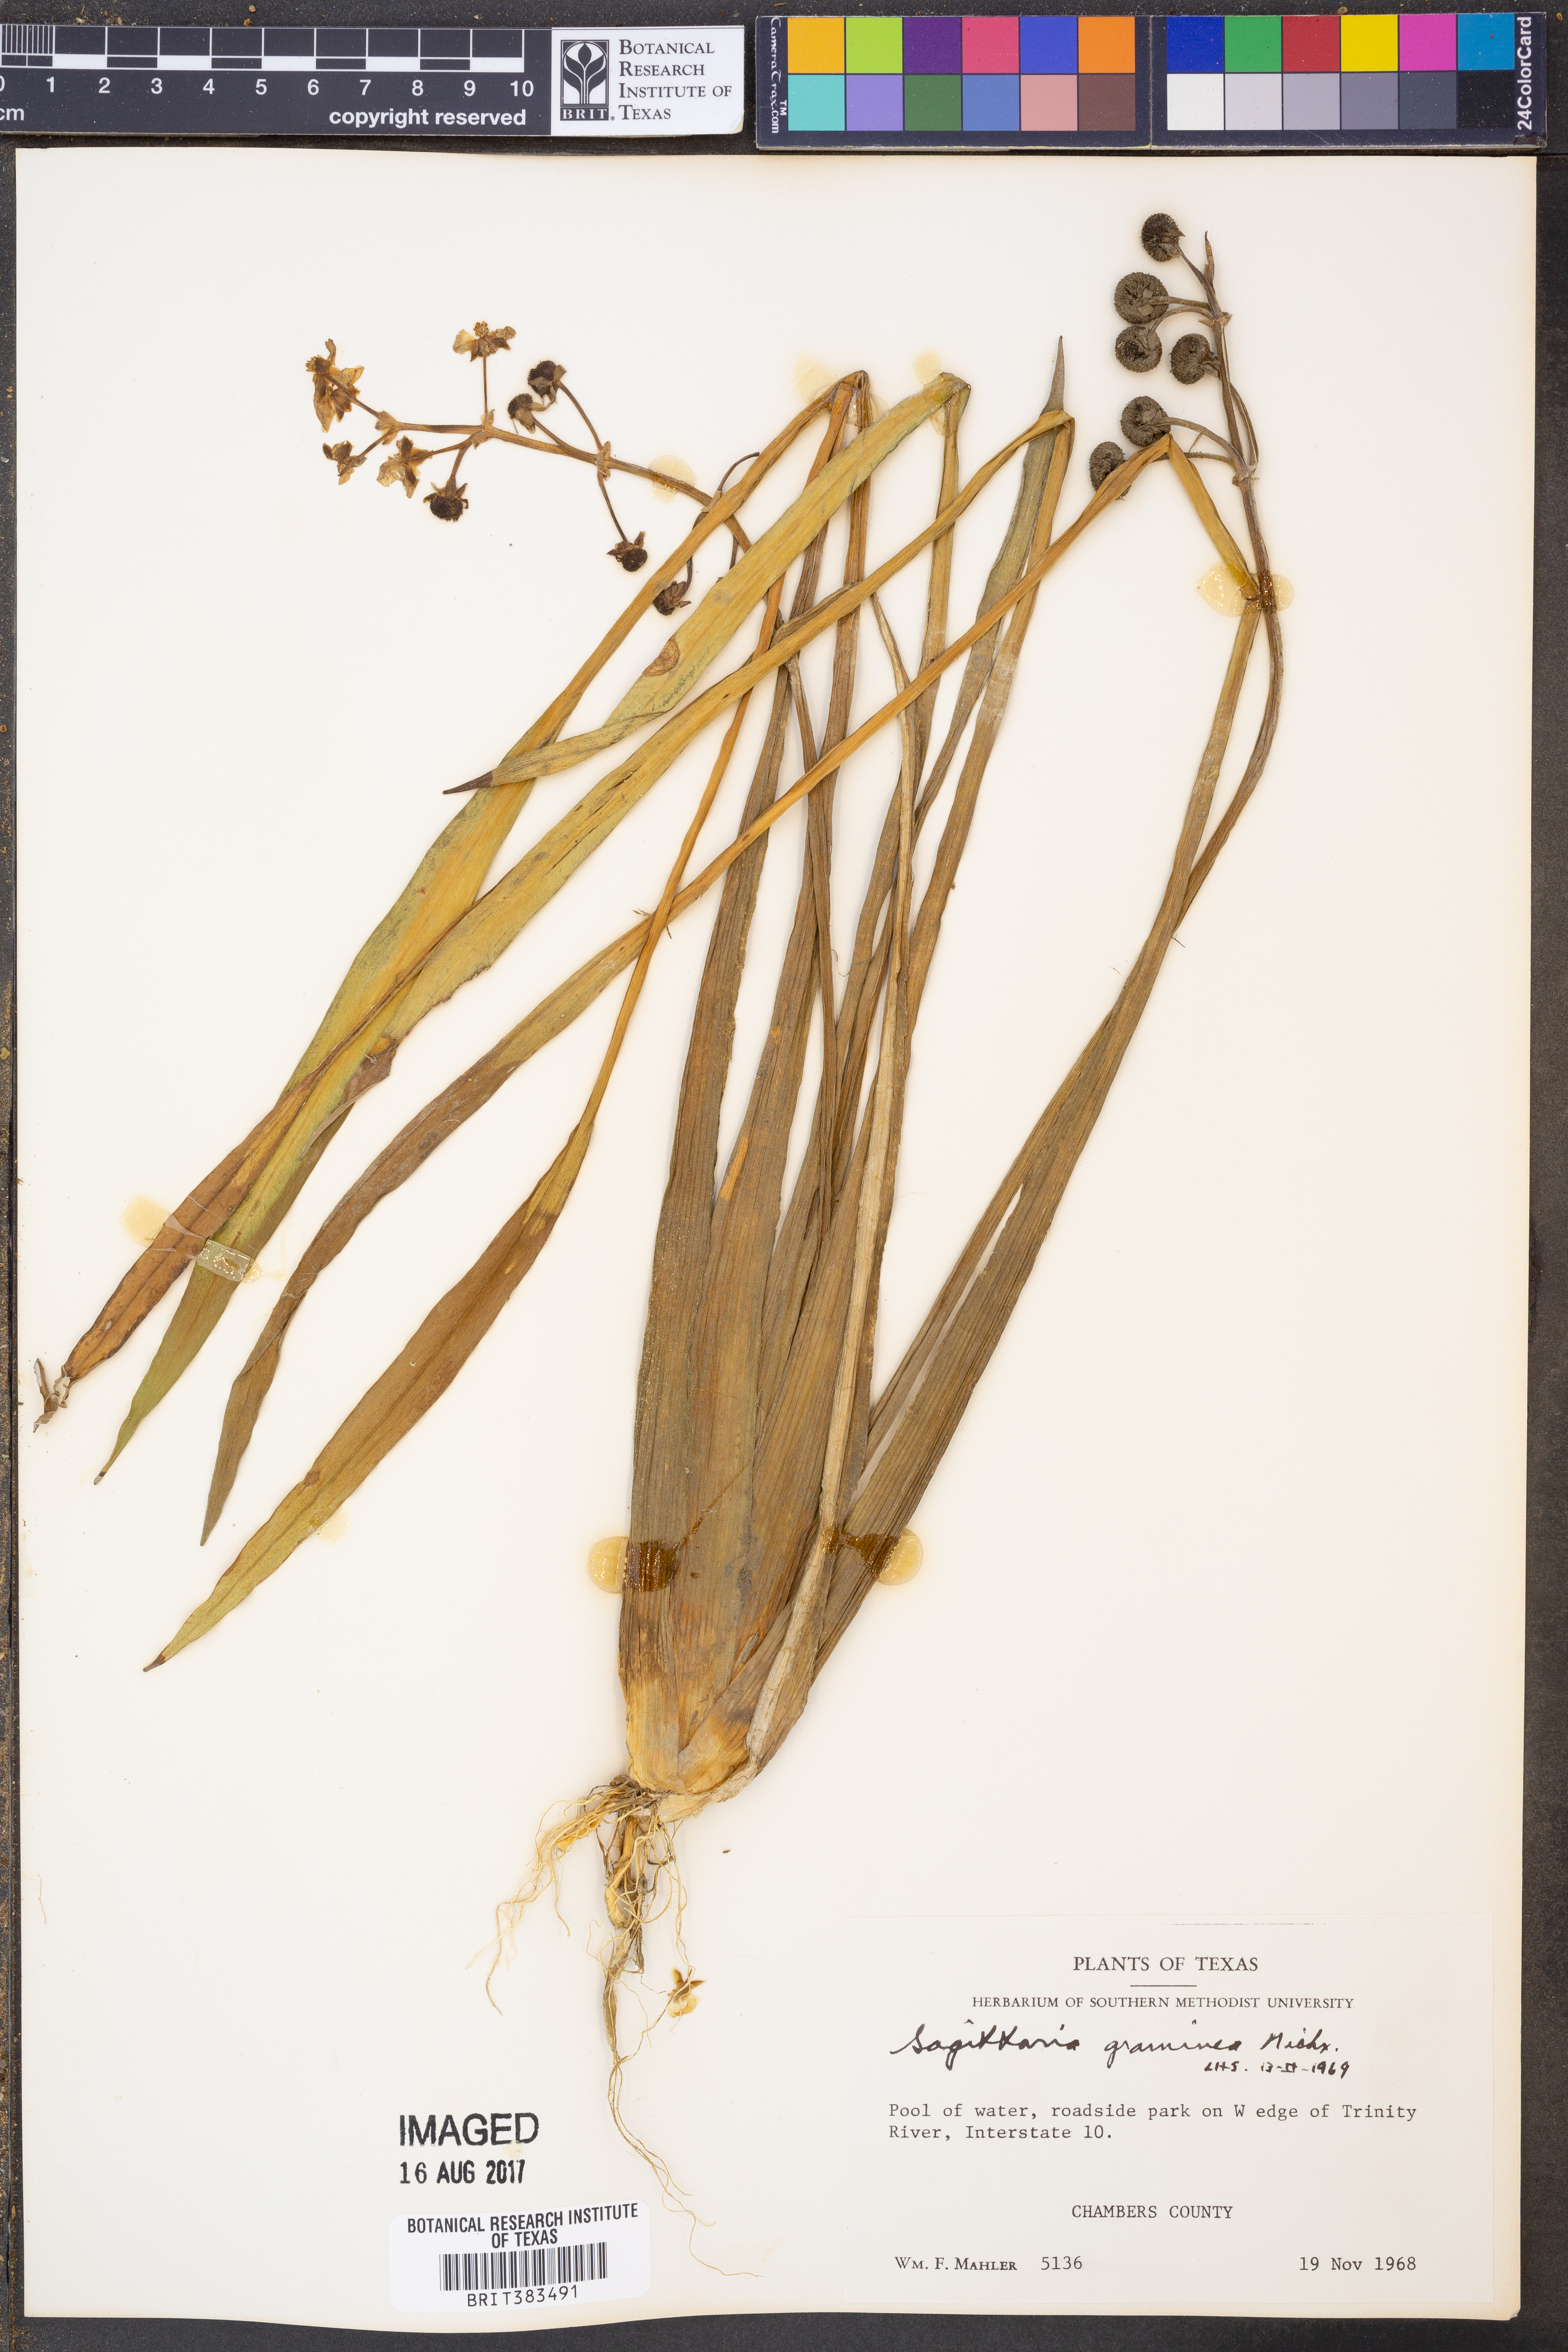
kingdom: Plantae
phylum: Tracheophyta
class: Liliopsida
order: Alismatales
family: Alismataceae
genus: Sagittaria
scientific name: Sagittaria graminea
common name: Grass-leaved arrowhead
